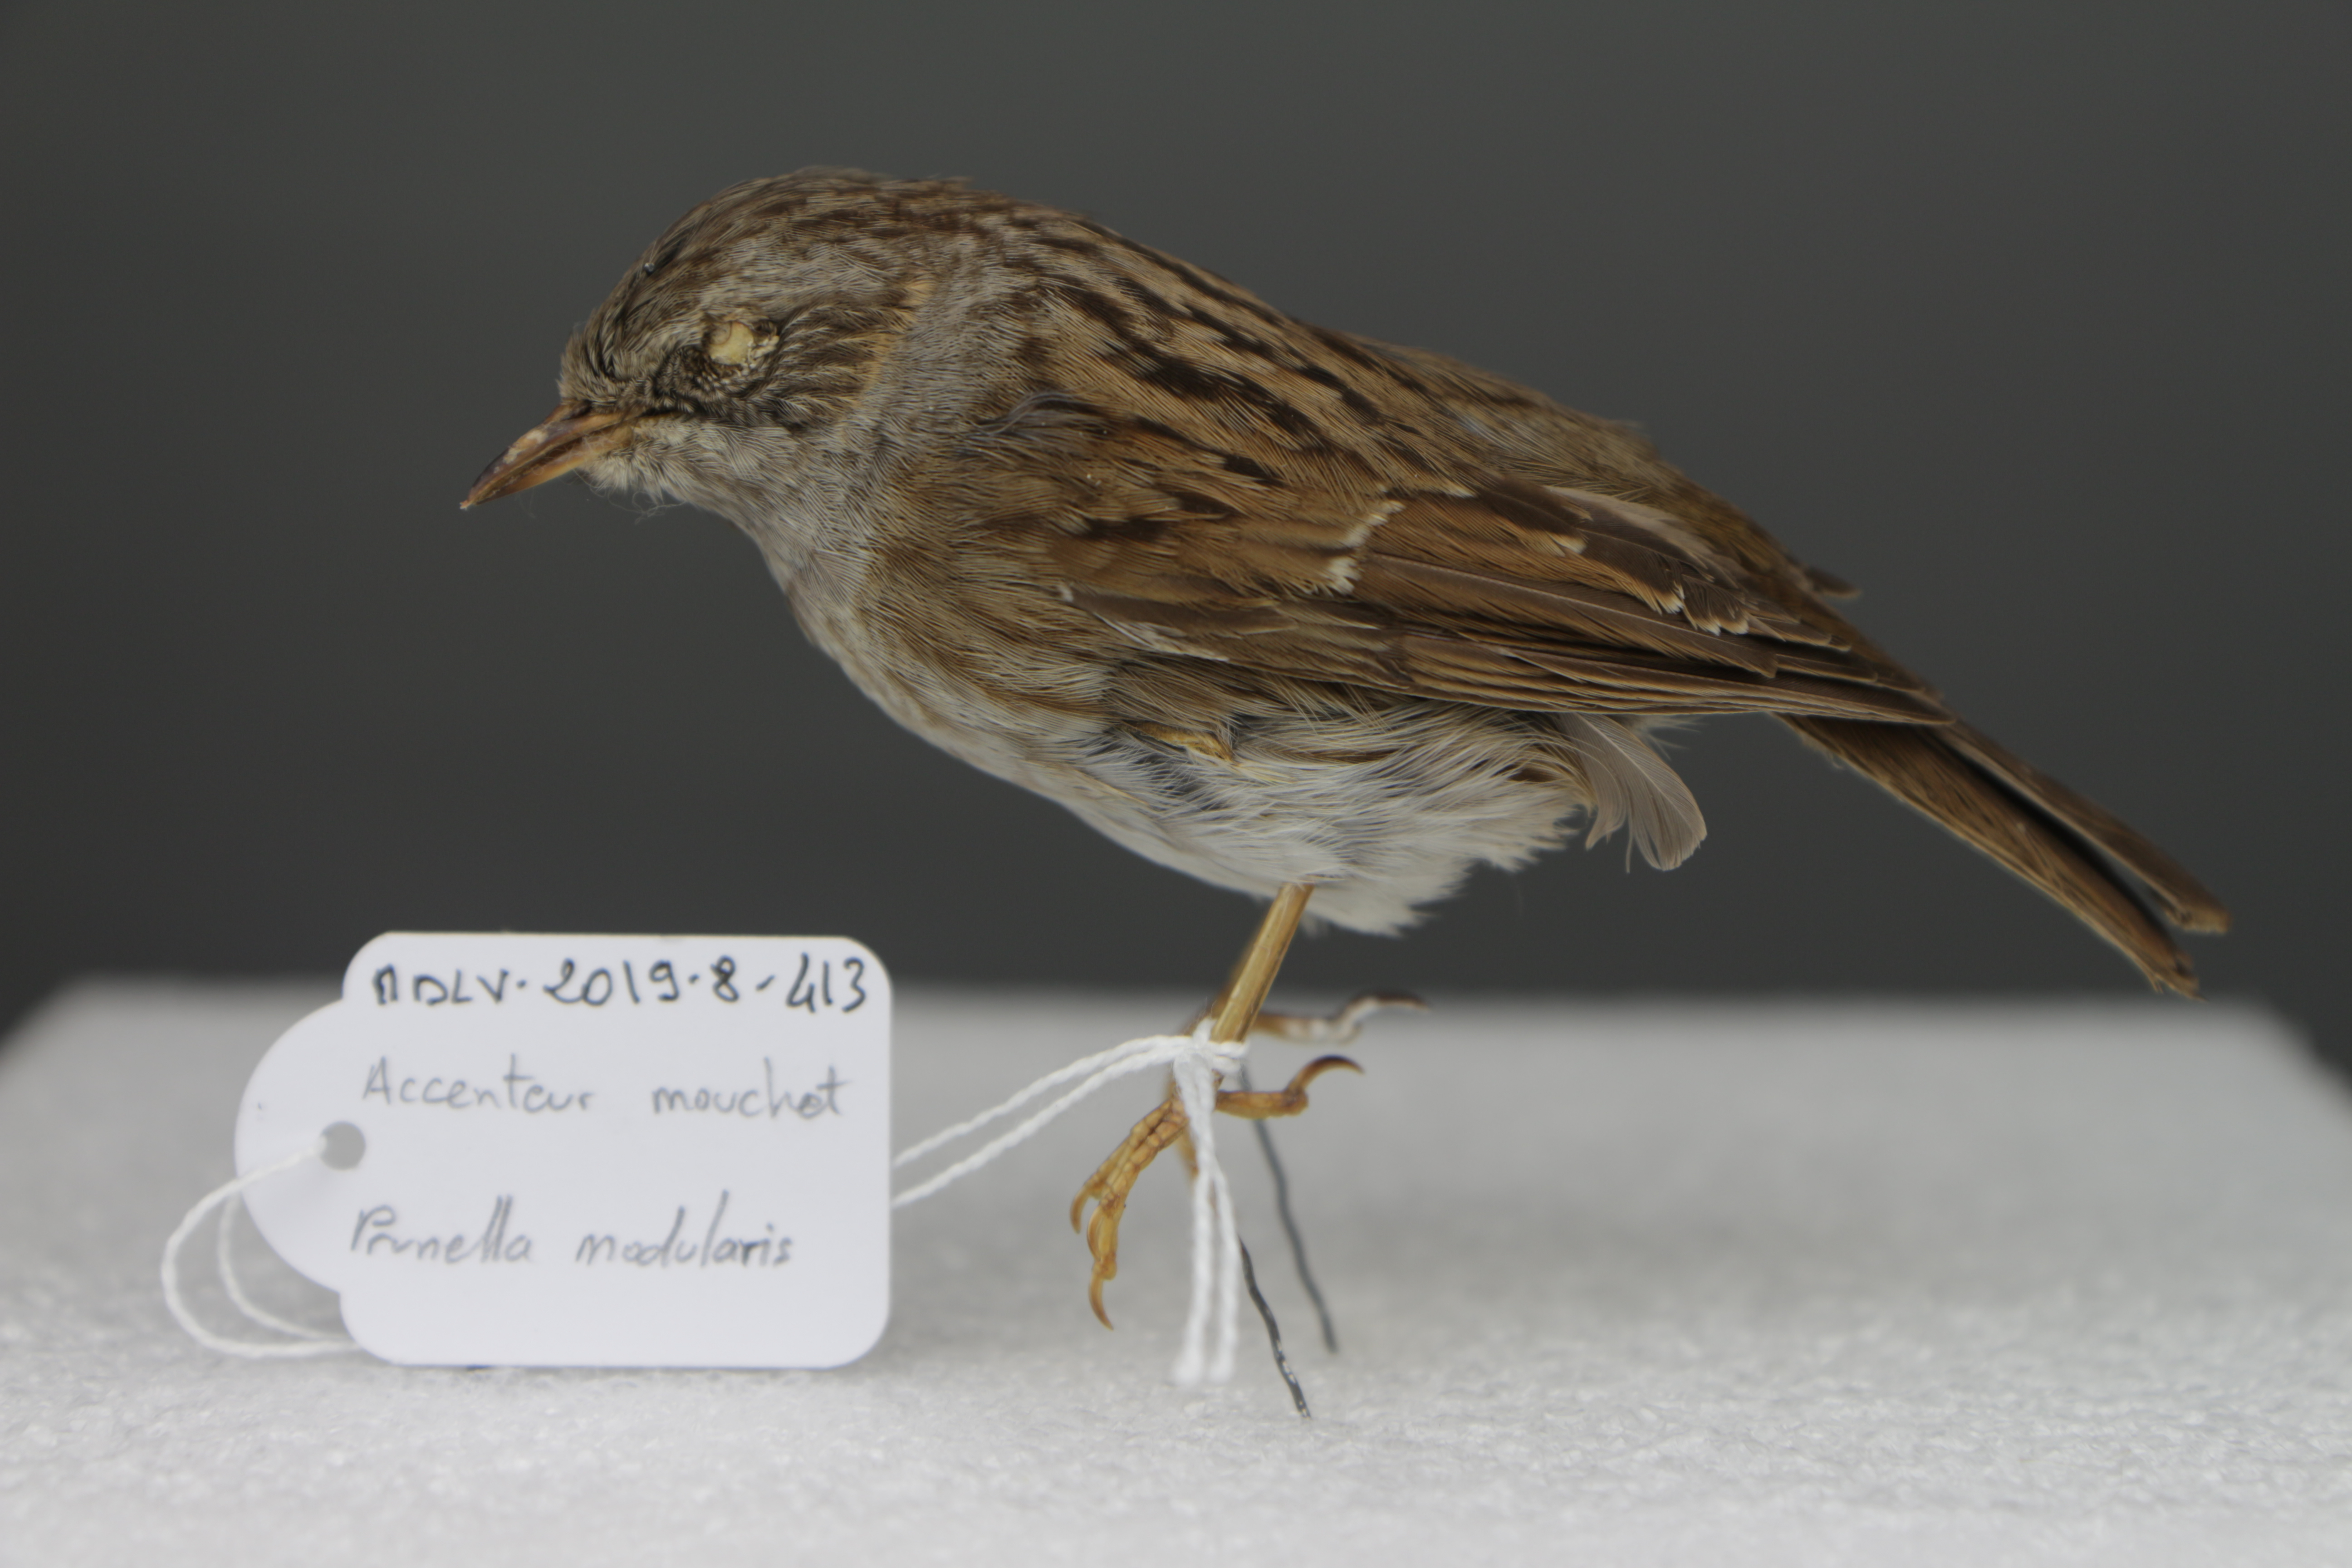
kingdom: Animalia
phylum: Chordata
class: Aves
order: Passeriformes
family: Prunellidae
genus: Prunella
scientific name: Prunella modularis
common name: Dunnock
